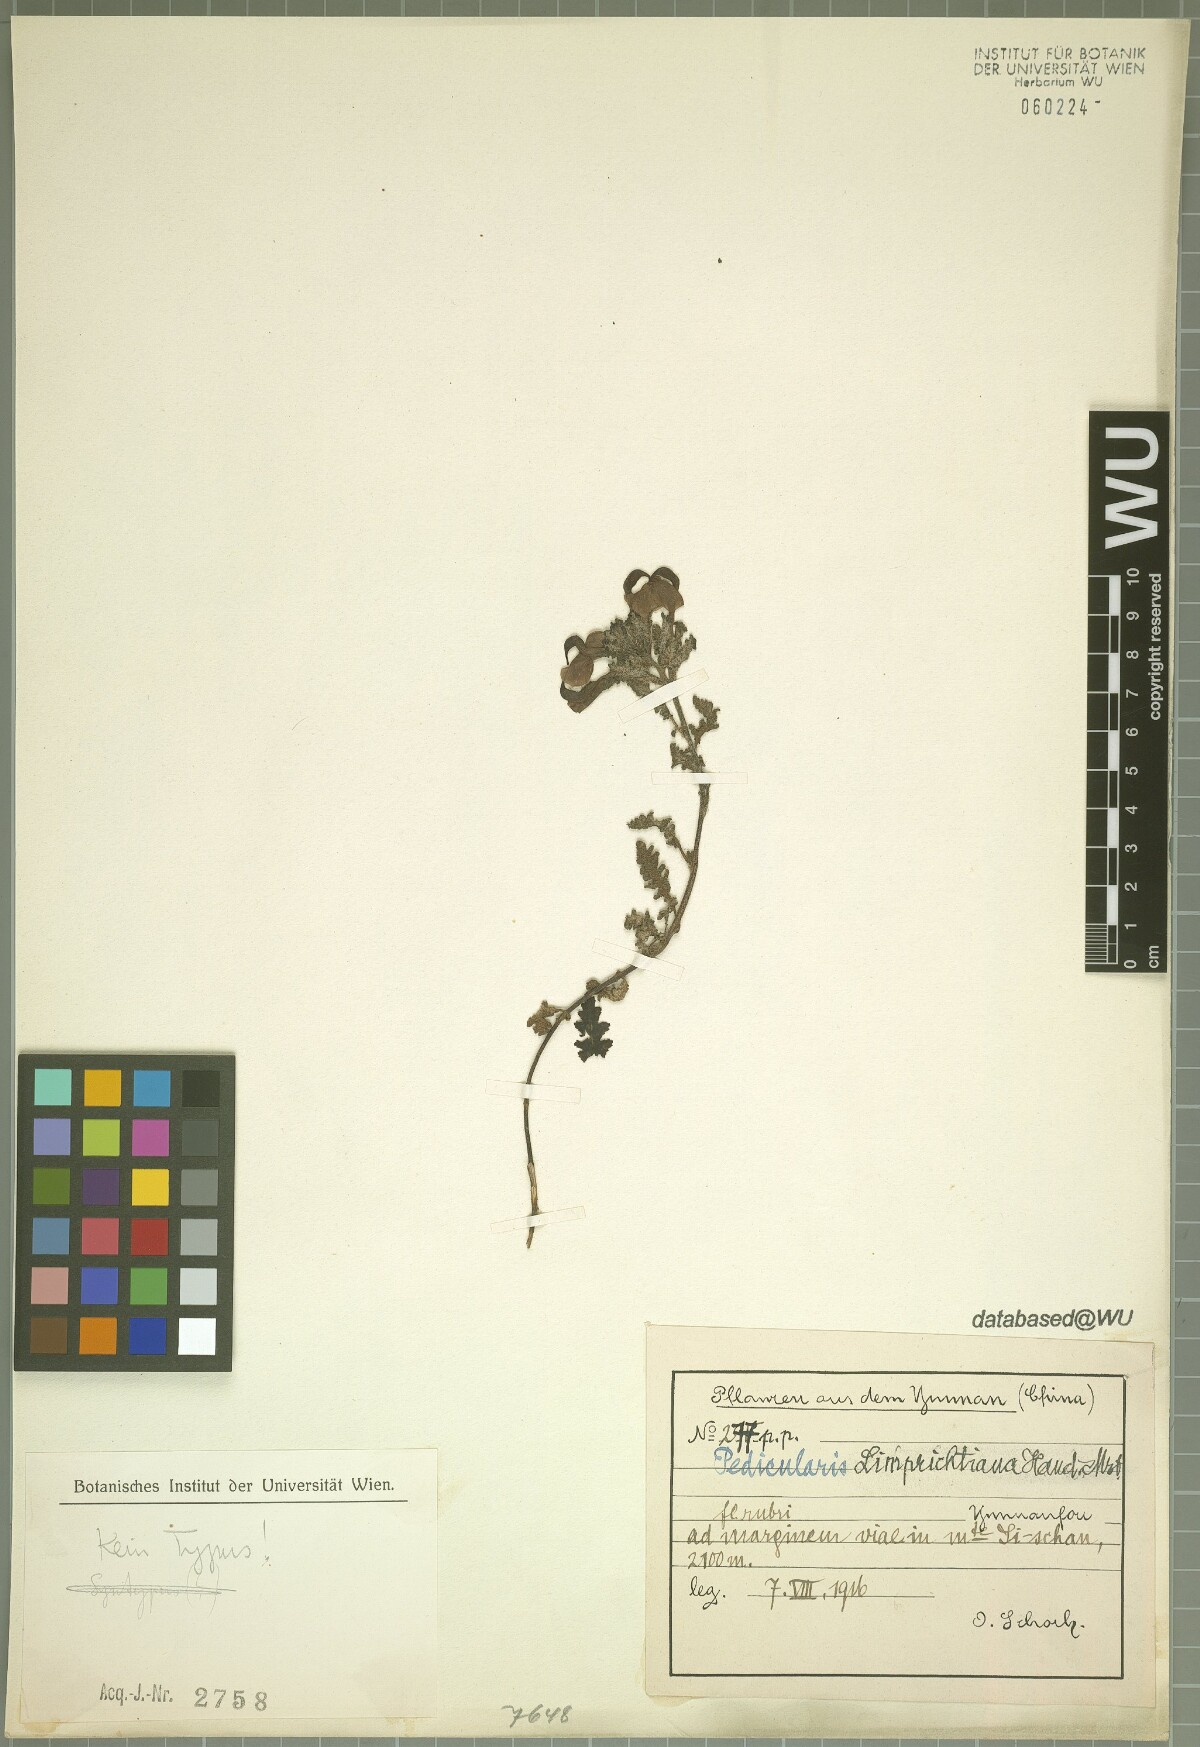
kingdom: Plantae
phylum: Tracheophyta
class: Magnoliopsida
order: Lamiales
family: Orobanchaceae
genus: Pedicularis
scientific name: Pedicularis limprichtiana
